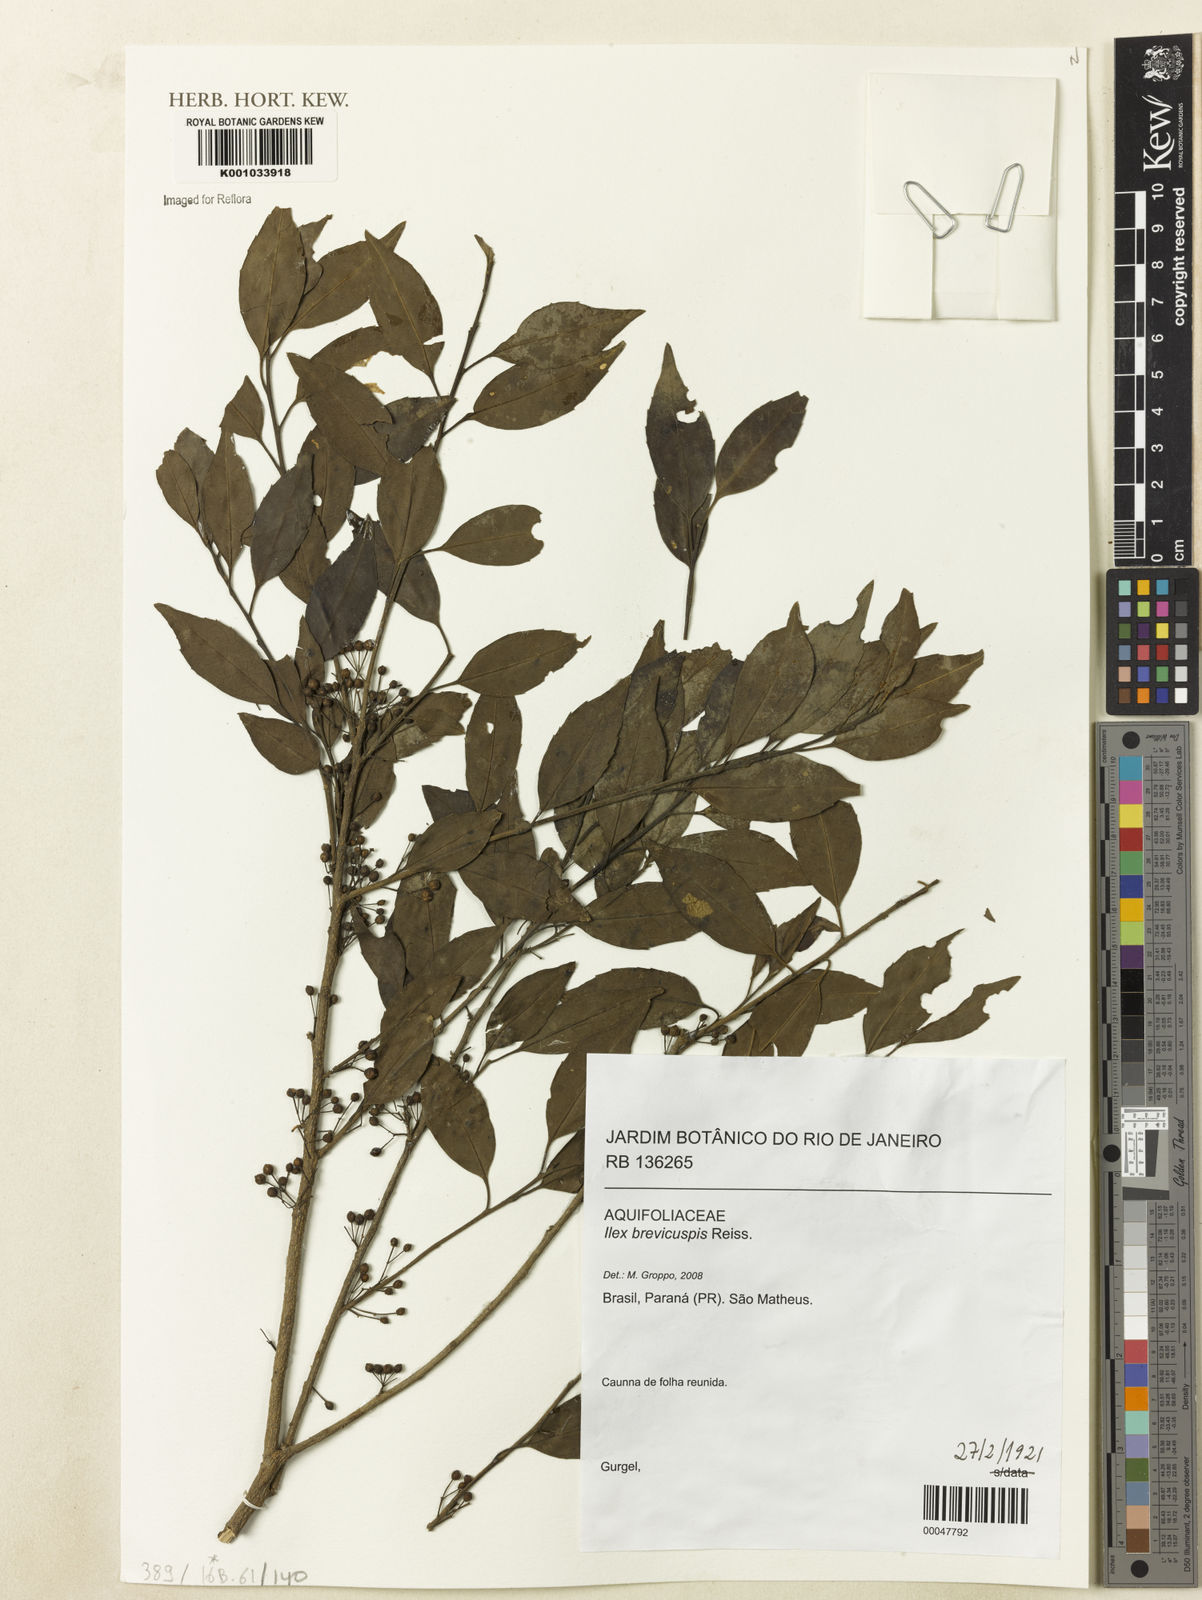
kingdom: Plantae
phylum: Tracheophyta
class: Magnoliopsida
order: Aquifoliales
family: Aquifoliaceae
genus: Ilex
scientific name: Ilex brevicuspis
